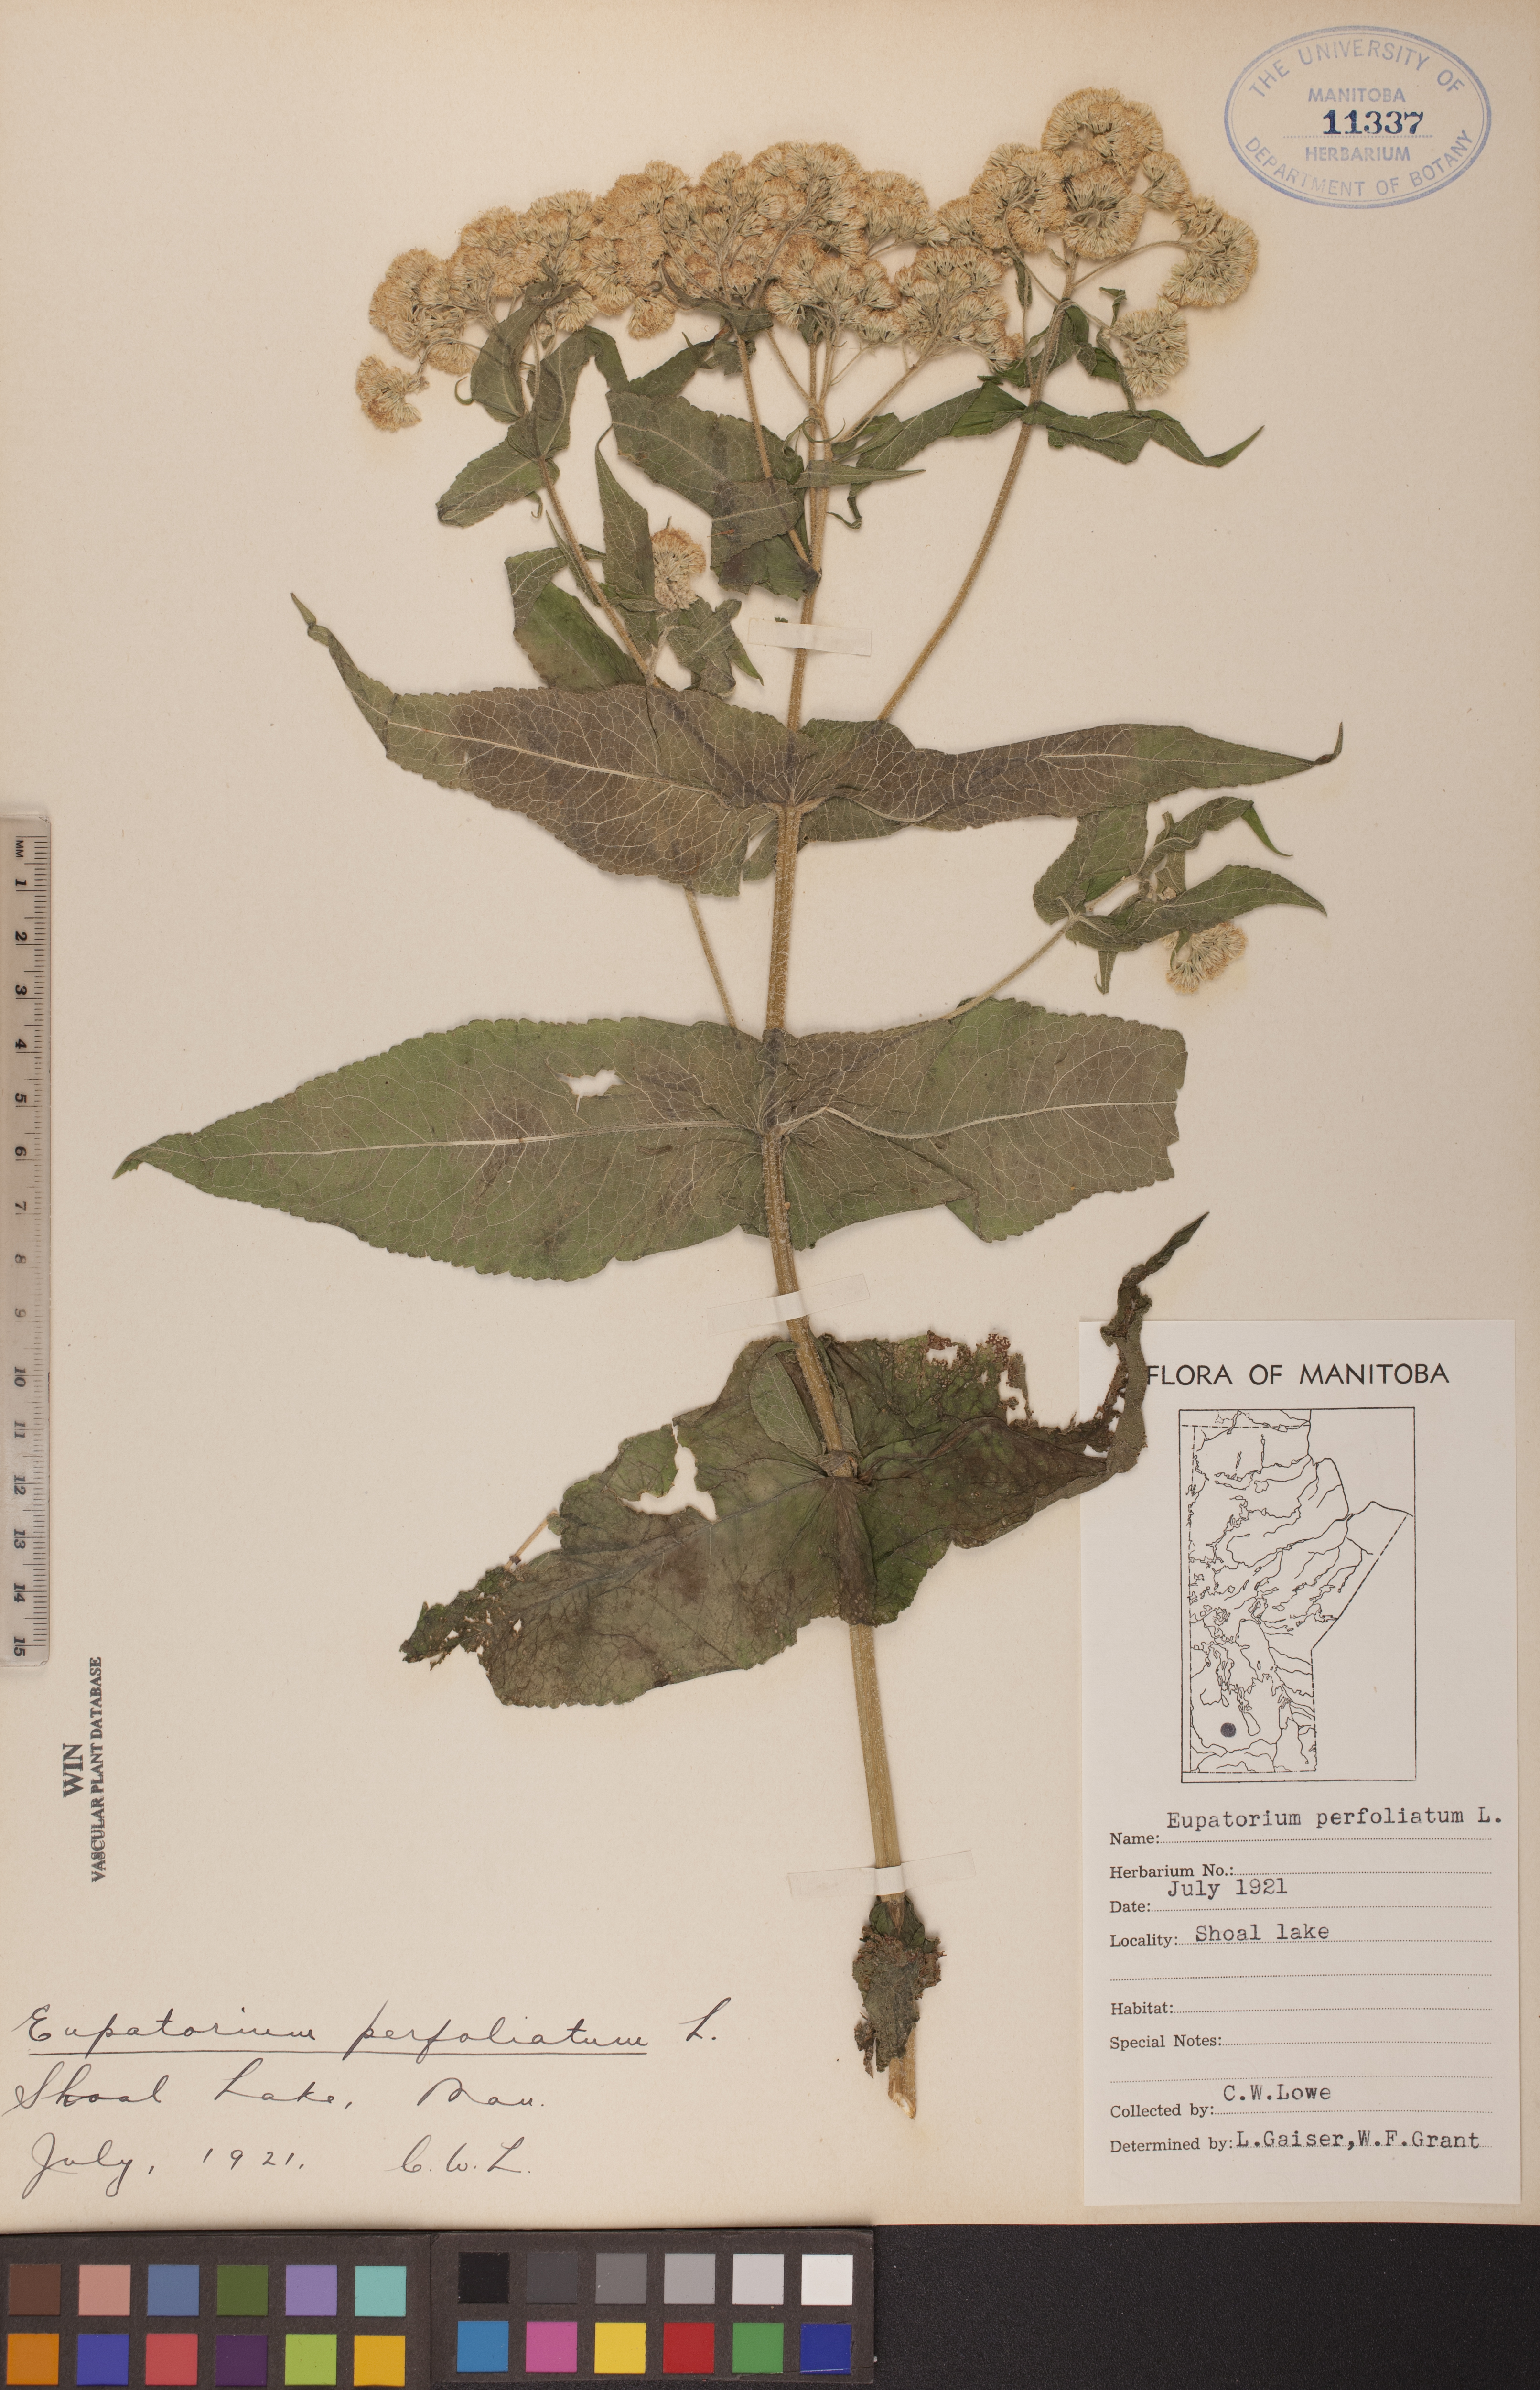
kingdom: Plantae
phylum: Tracheophyta
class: Magnoliopsida
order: Asterales
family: Asteraceae
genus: Eupatorium
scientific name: Eupatorium perfoliatum
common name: Boneset
